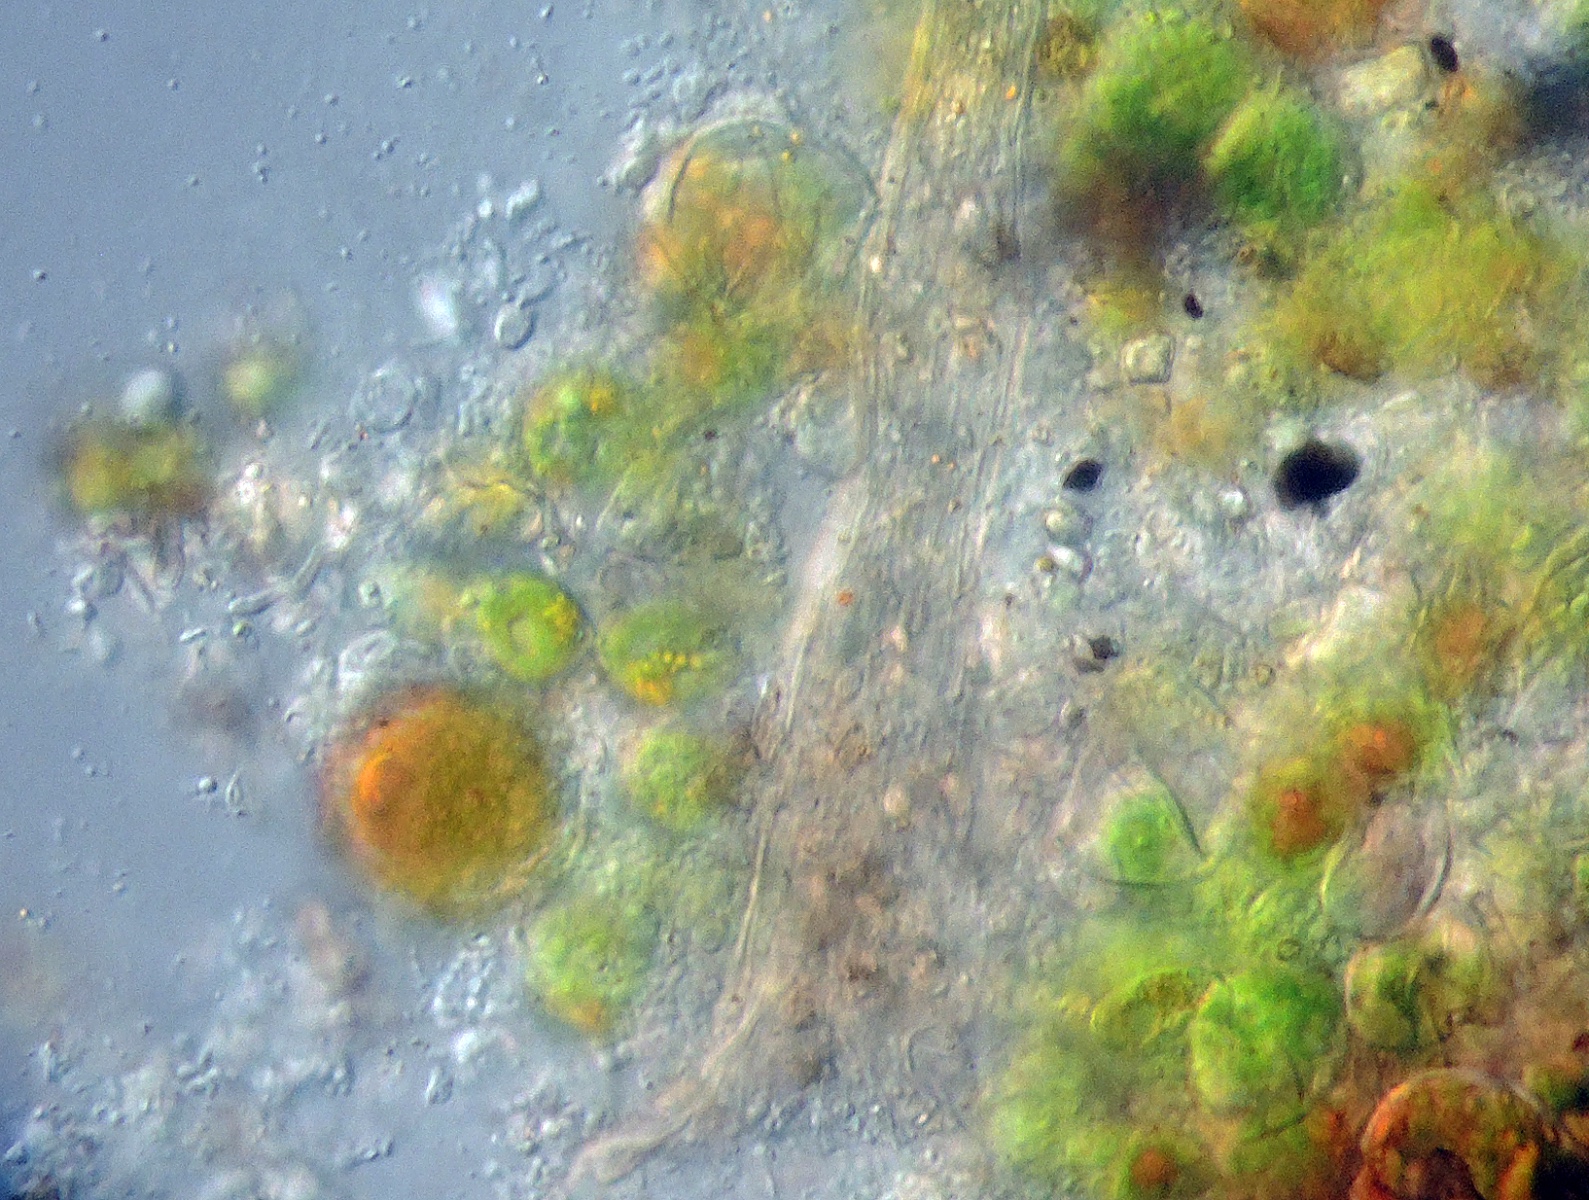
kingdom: Fungi
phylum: Ascomycota
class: Sordariomycetes
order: Hypocreales
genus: Stilbella
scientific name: Stilbella
